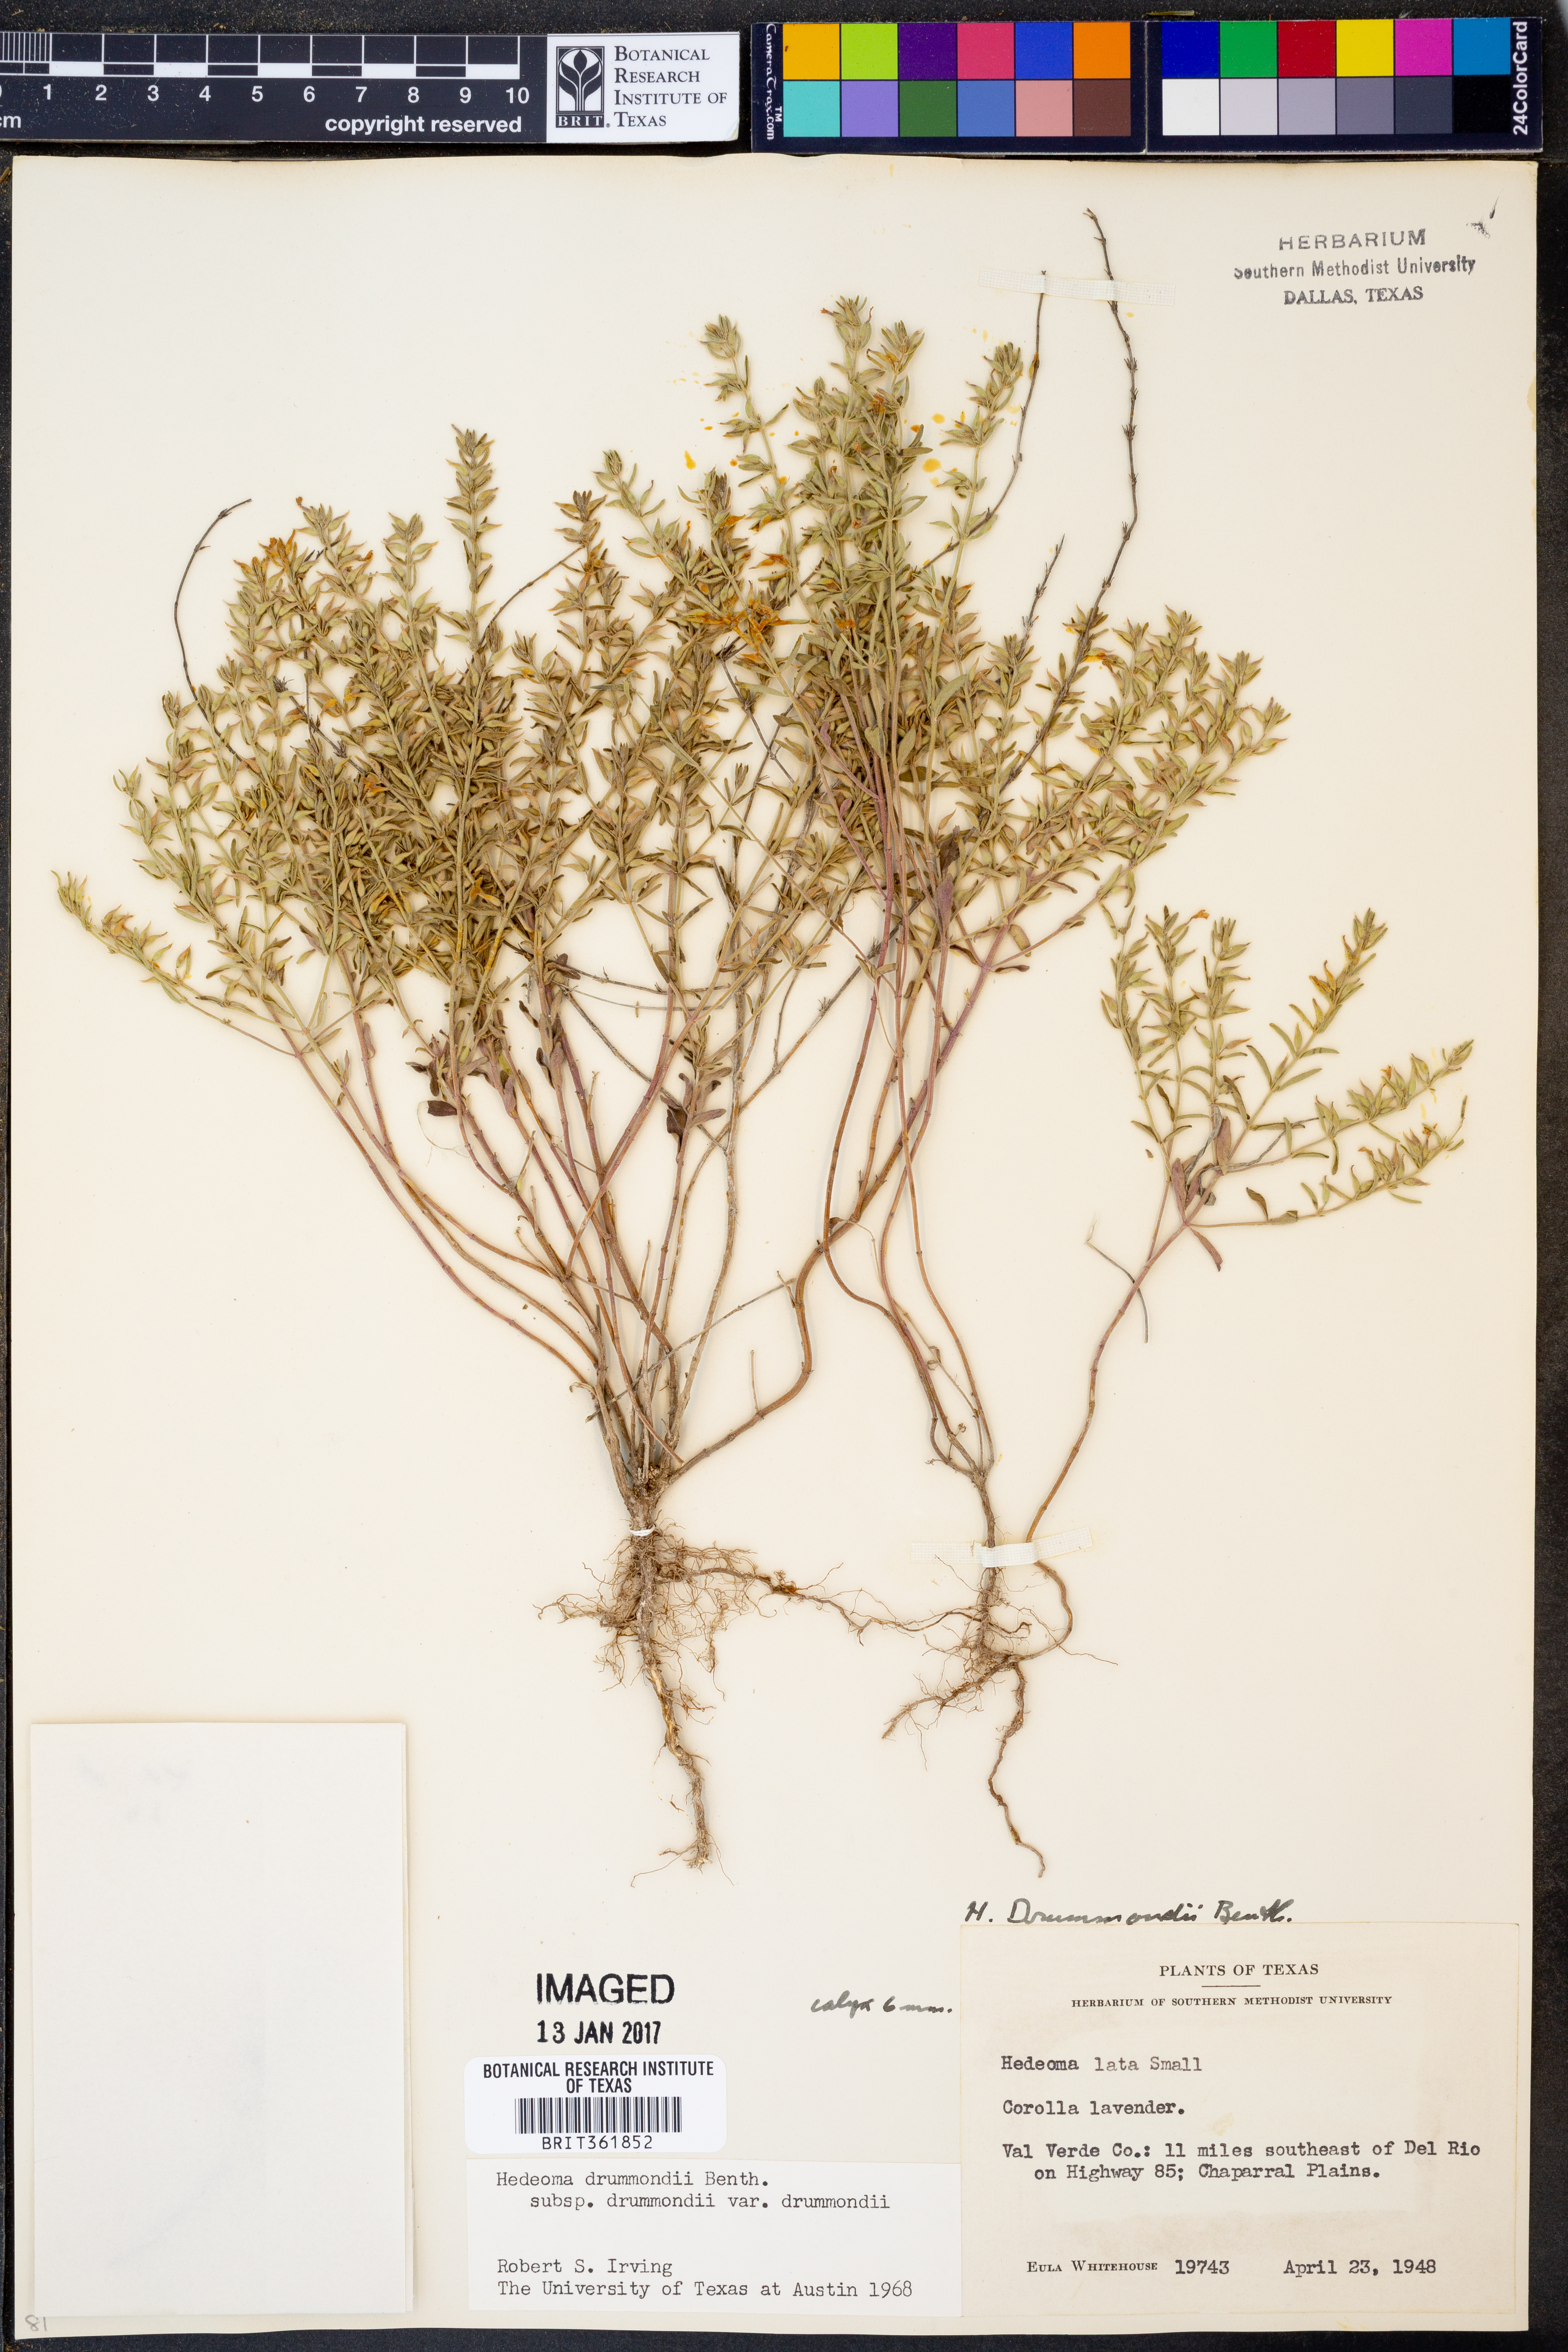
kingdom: Plantae
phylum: Tracheophyta
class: Magnoliopsida
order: Lamiales
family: Lamiaceae
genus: Hedeoma
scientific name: Hedeoma drummondii
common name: New mexico pennyroyal
